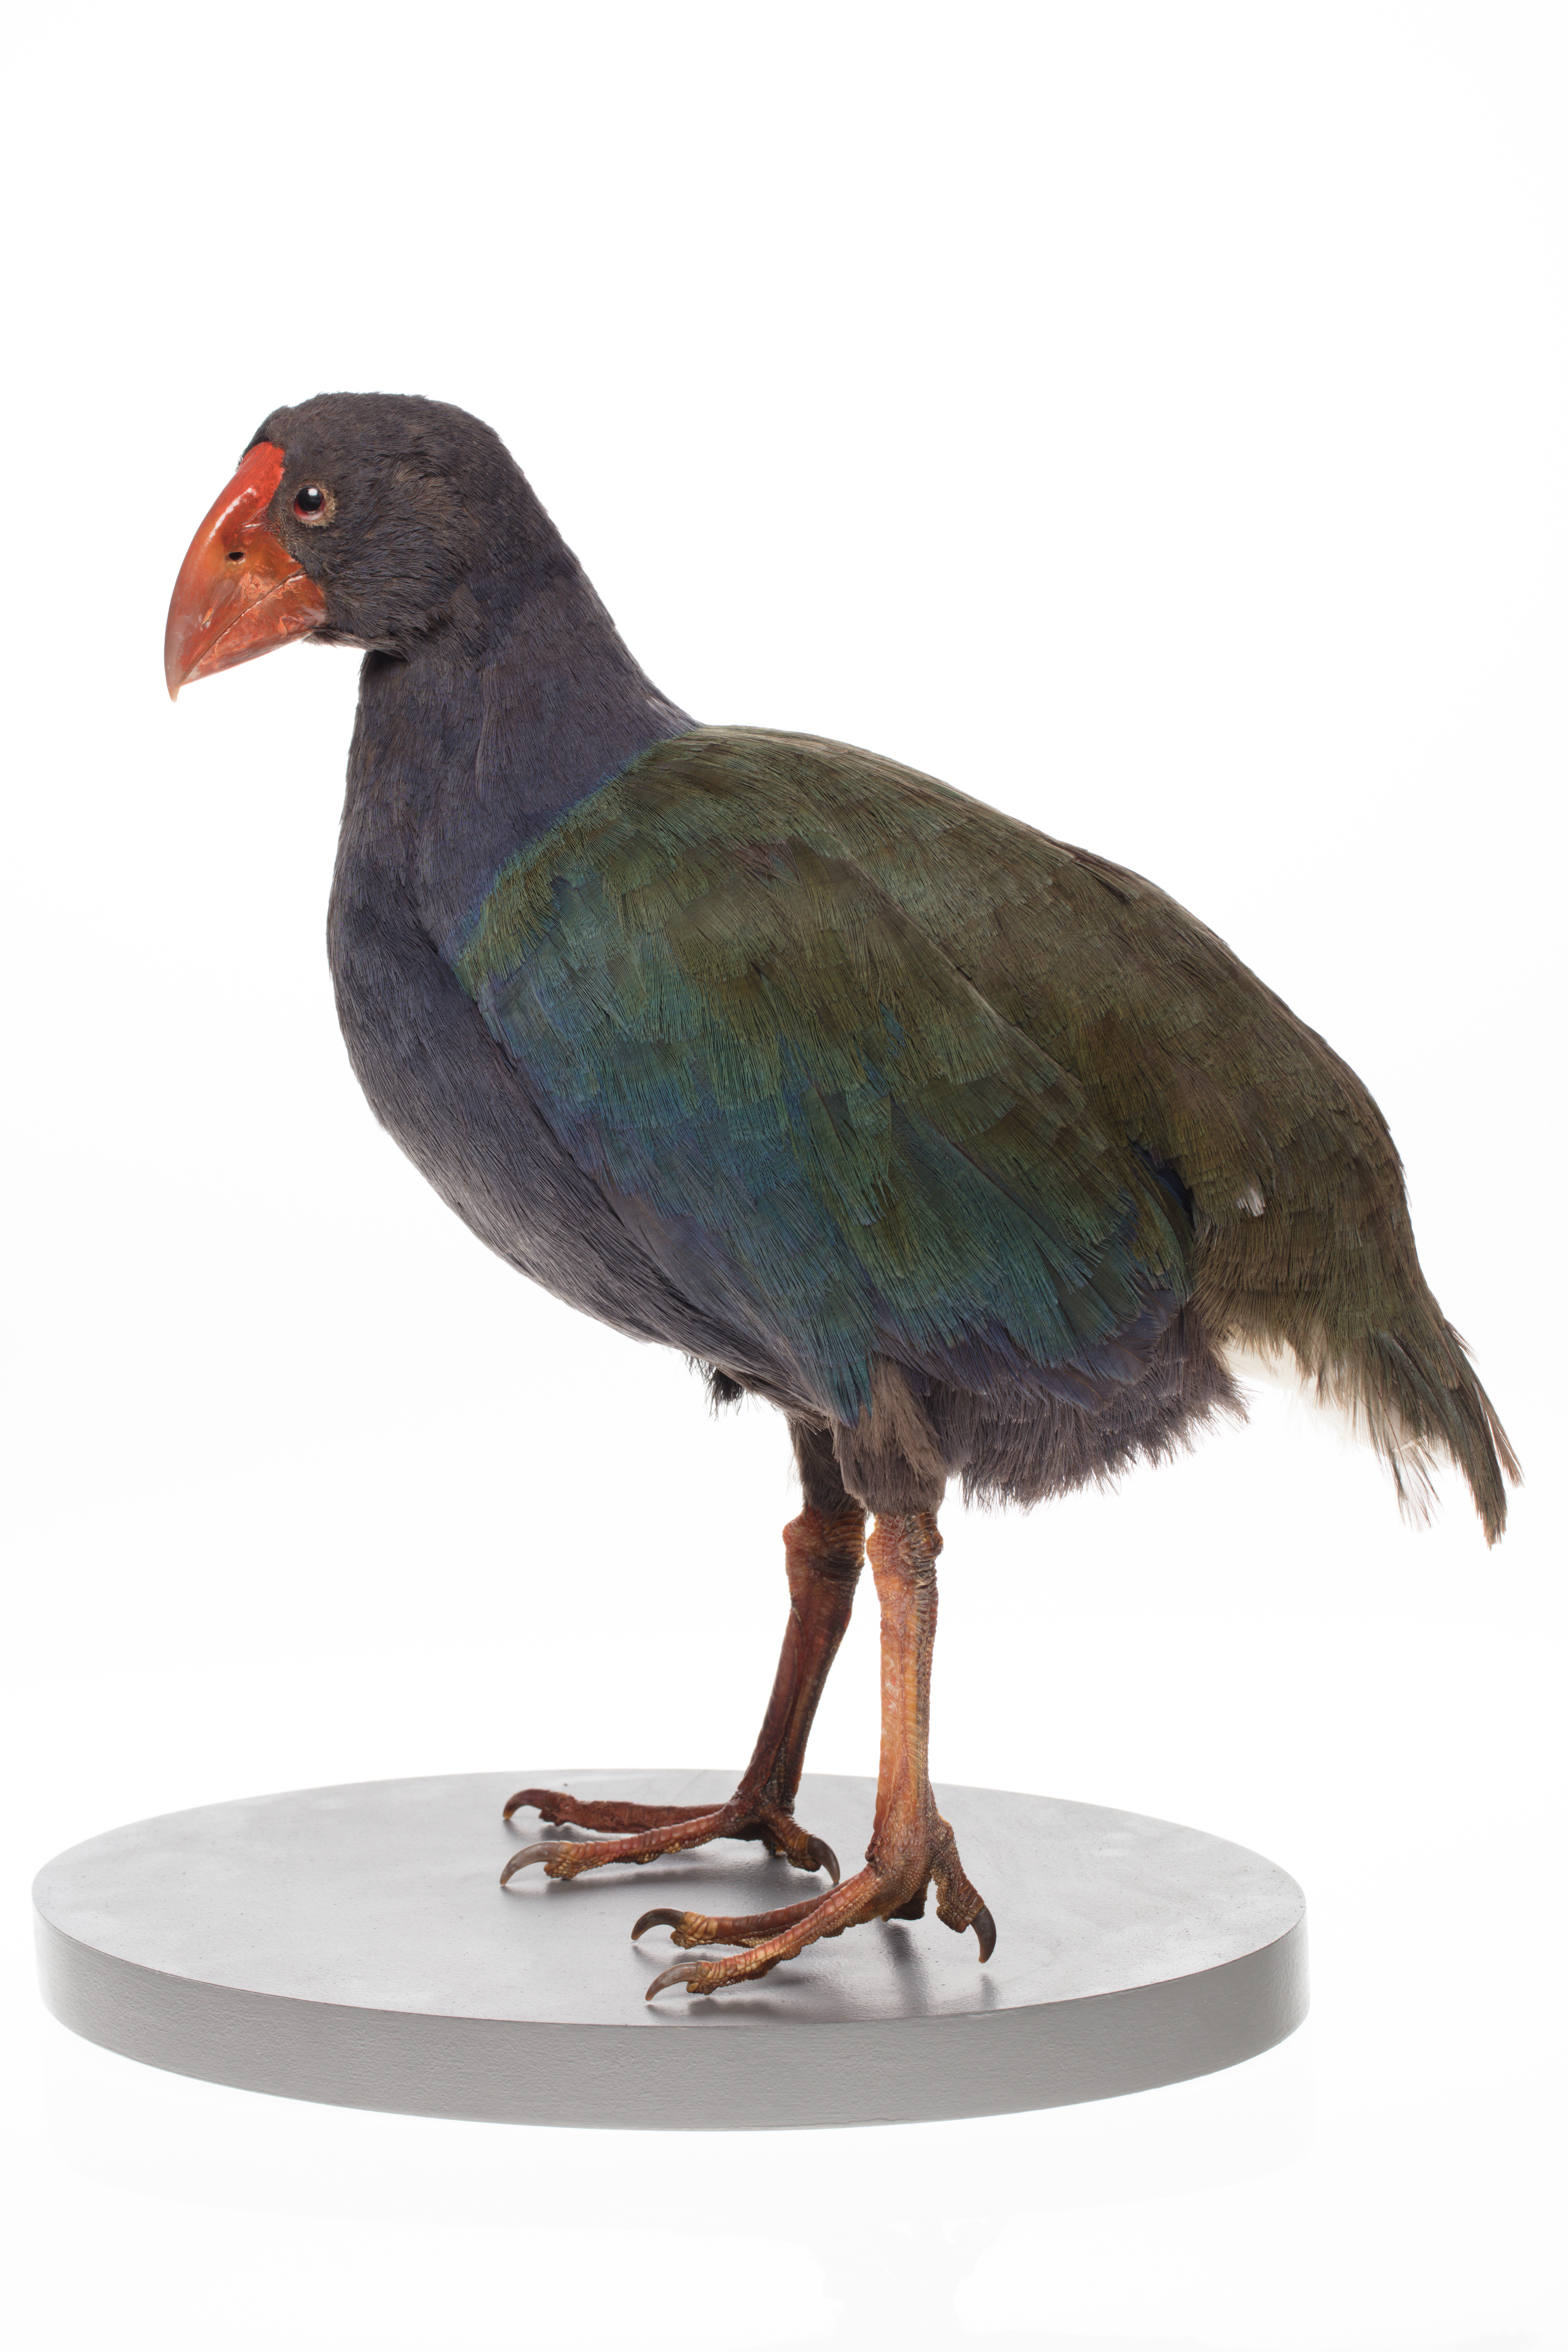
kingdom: Animalia
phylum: Chordata
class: Aves
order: Gruiformes
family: Rallidae
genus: Porphyrio
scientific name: Porphyrio hochstetteri
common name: South island takahe
